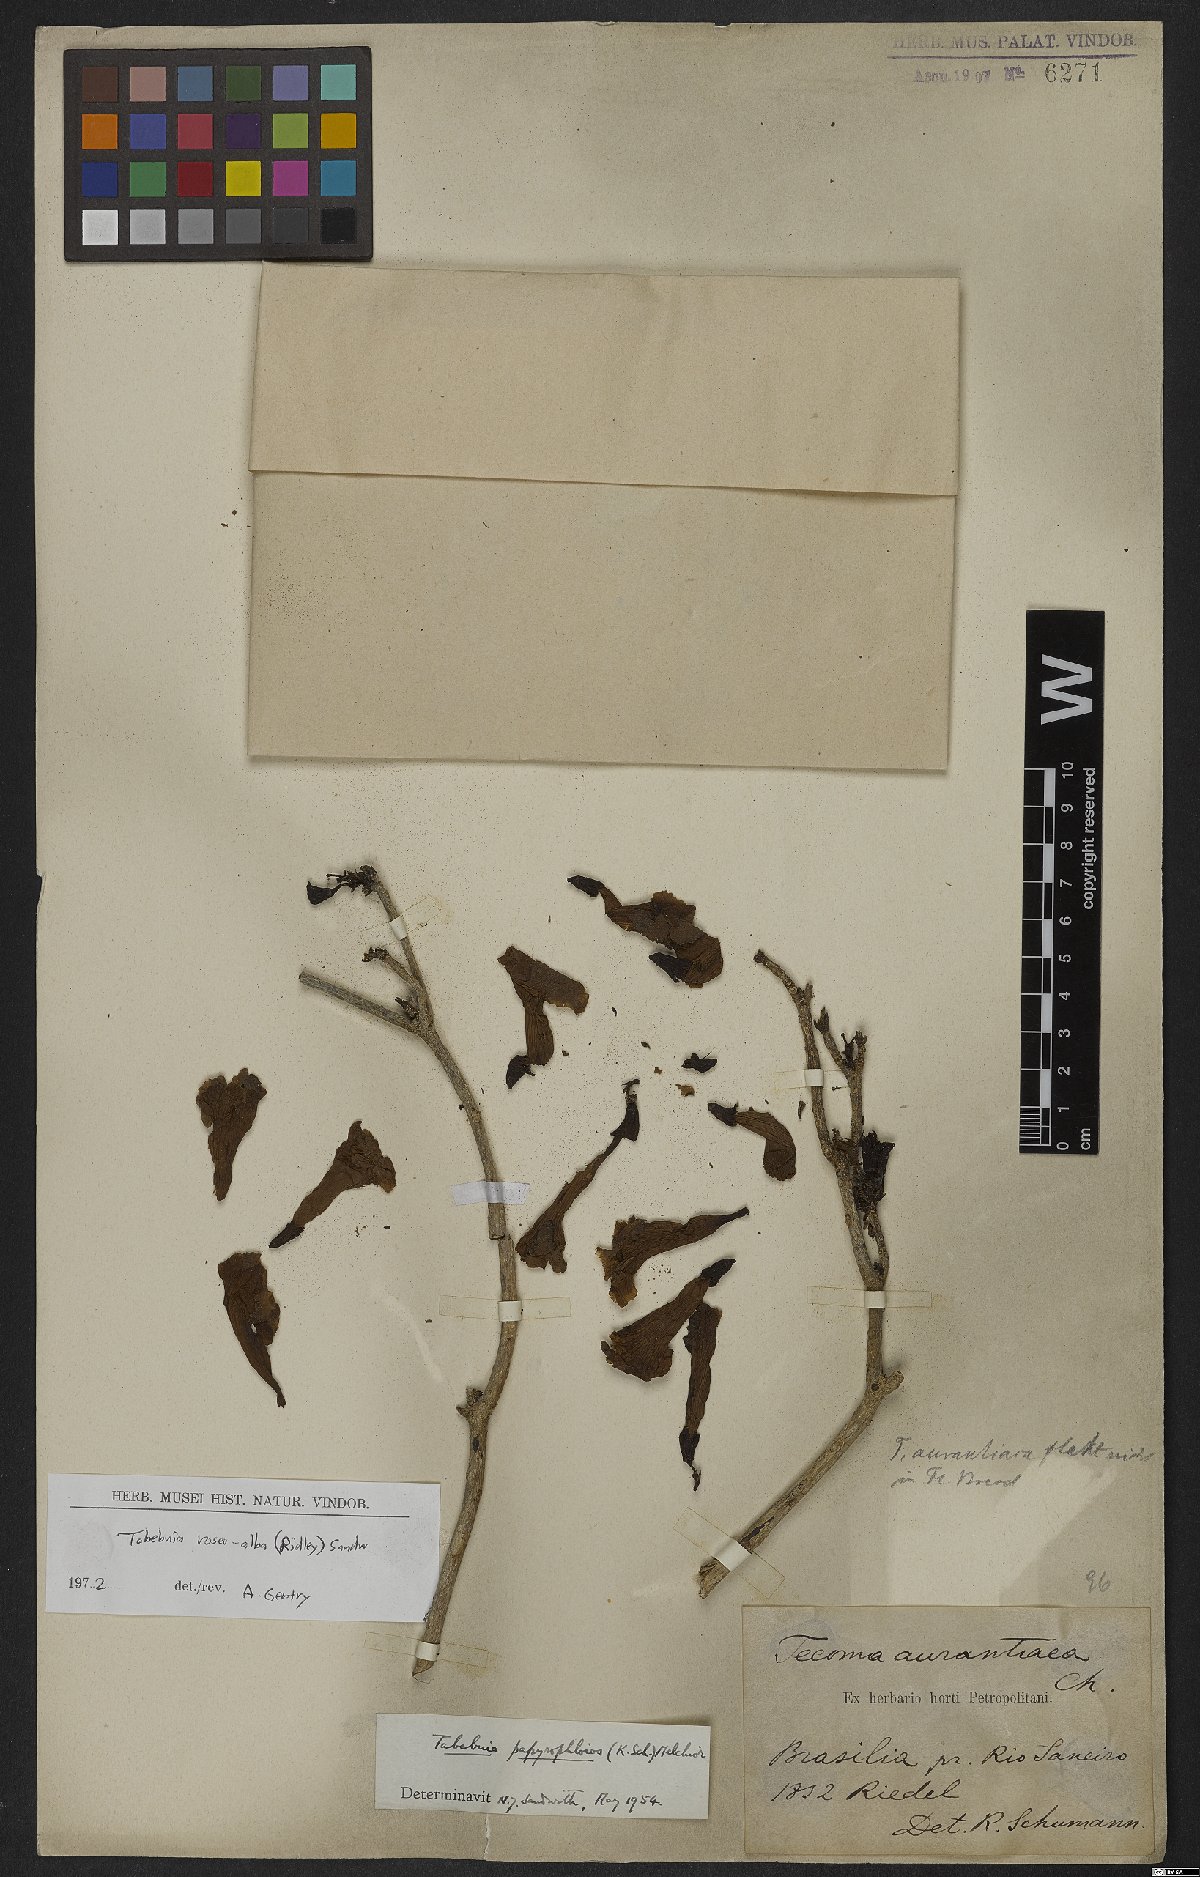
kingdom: Plantae
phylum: Tracheophyta
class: Magnoliopsida
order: Lamiales
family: Bignoniaceae
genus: Tabebuia
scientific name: Tabebuia roseoalba
